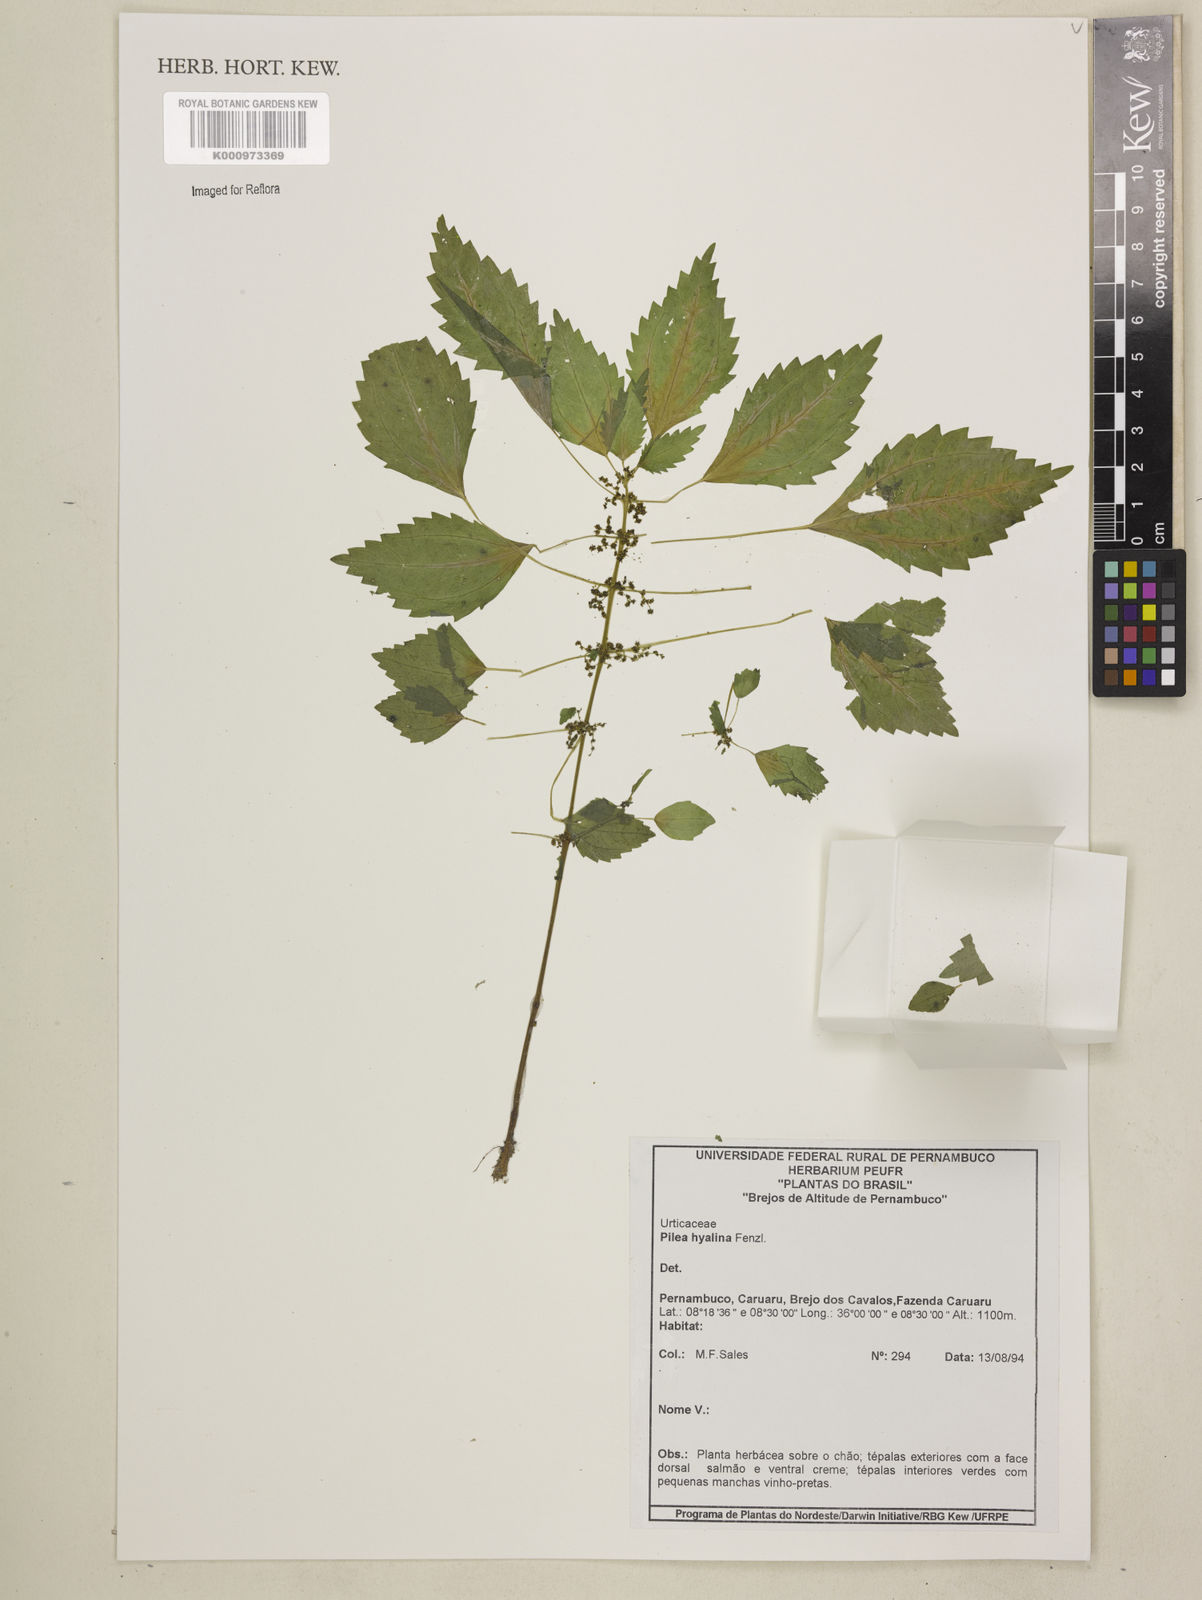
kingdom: Plantae
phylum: Tracheophyta
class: Magnoliopsida
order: Rosales
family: Urticaceae
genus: Pilea
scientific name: Pilea hyalina
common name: Virdrillo
